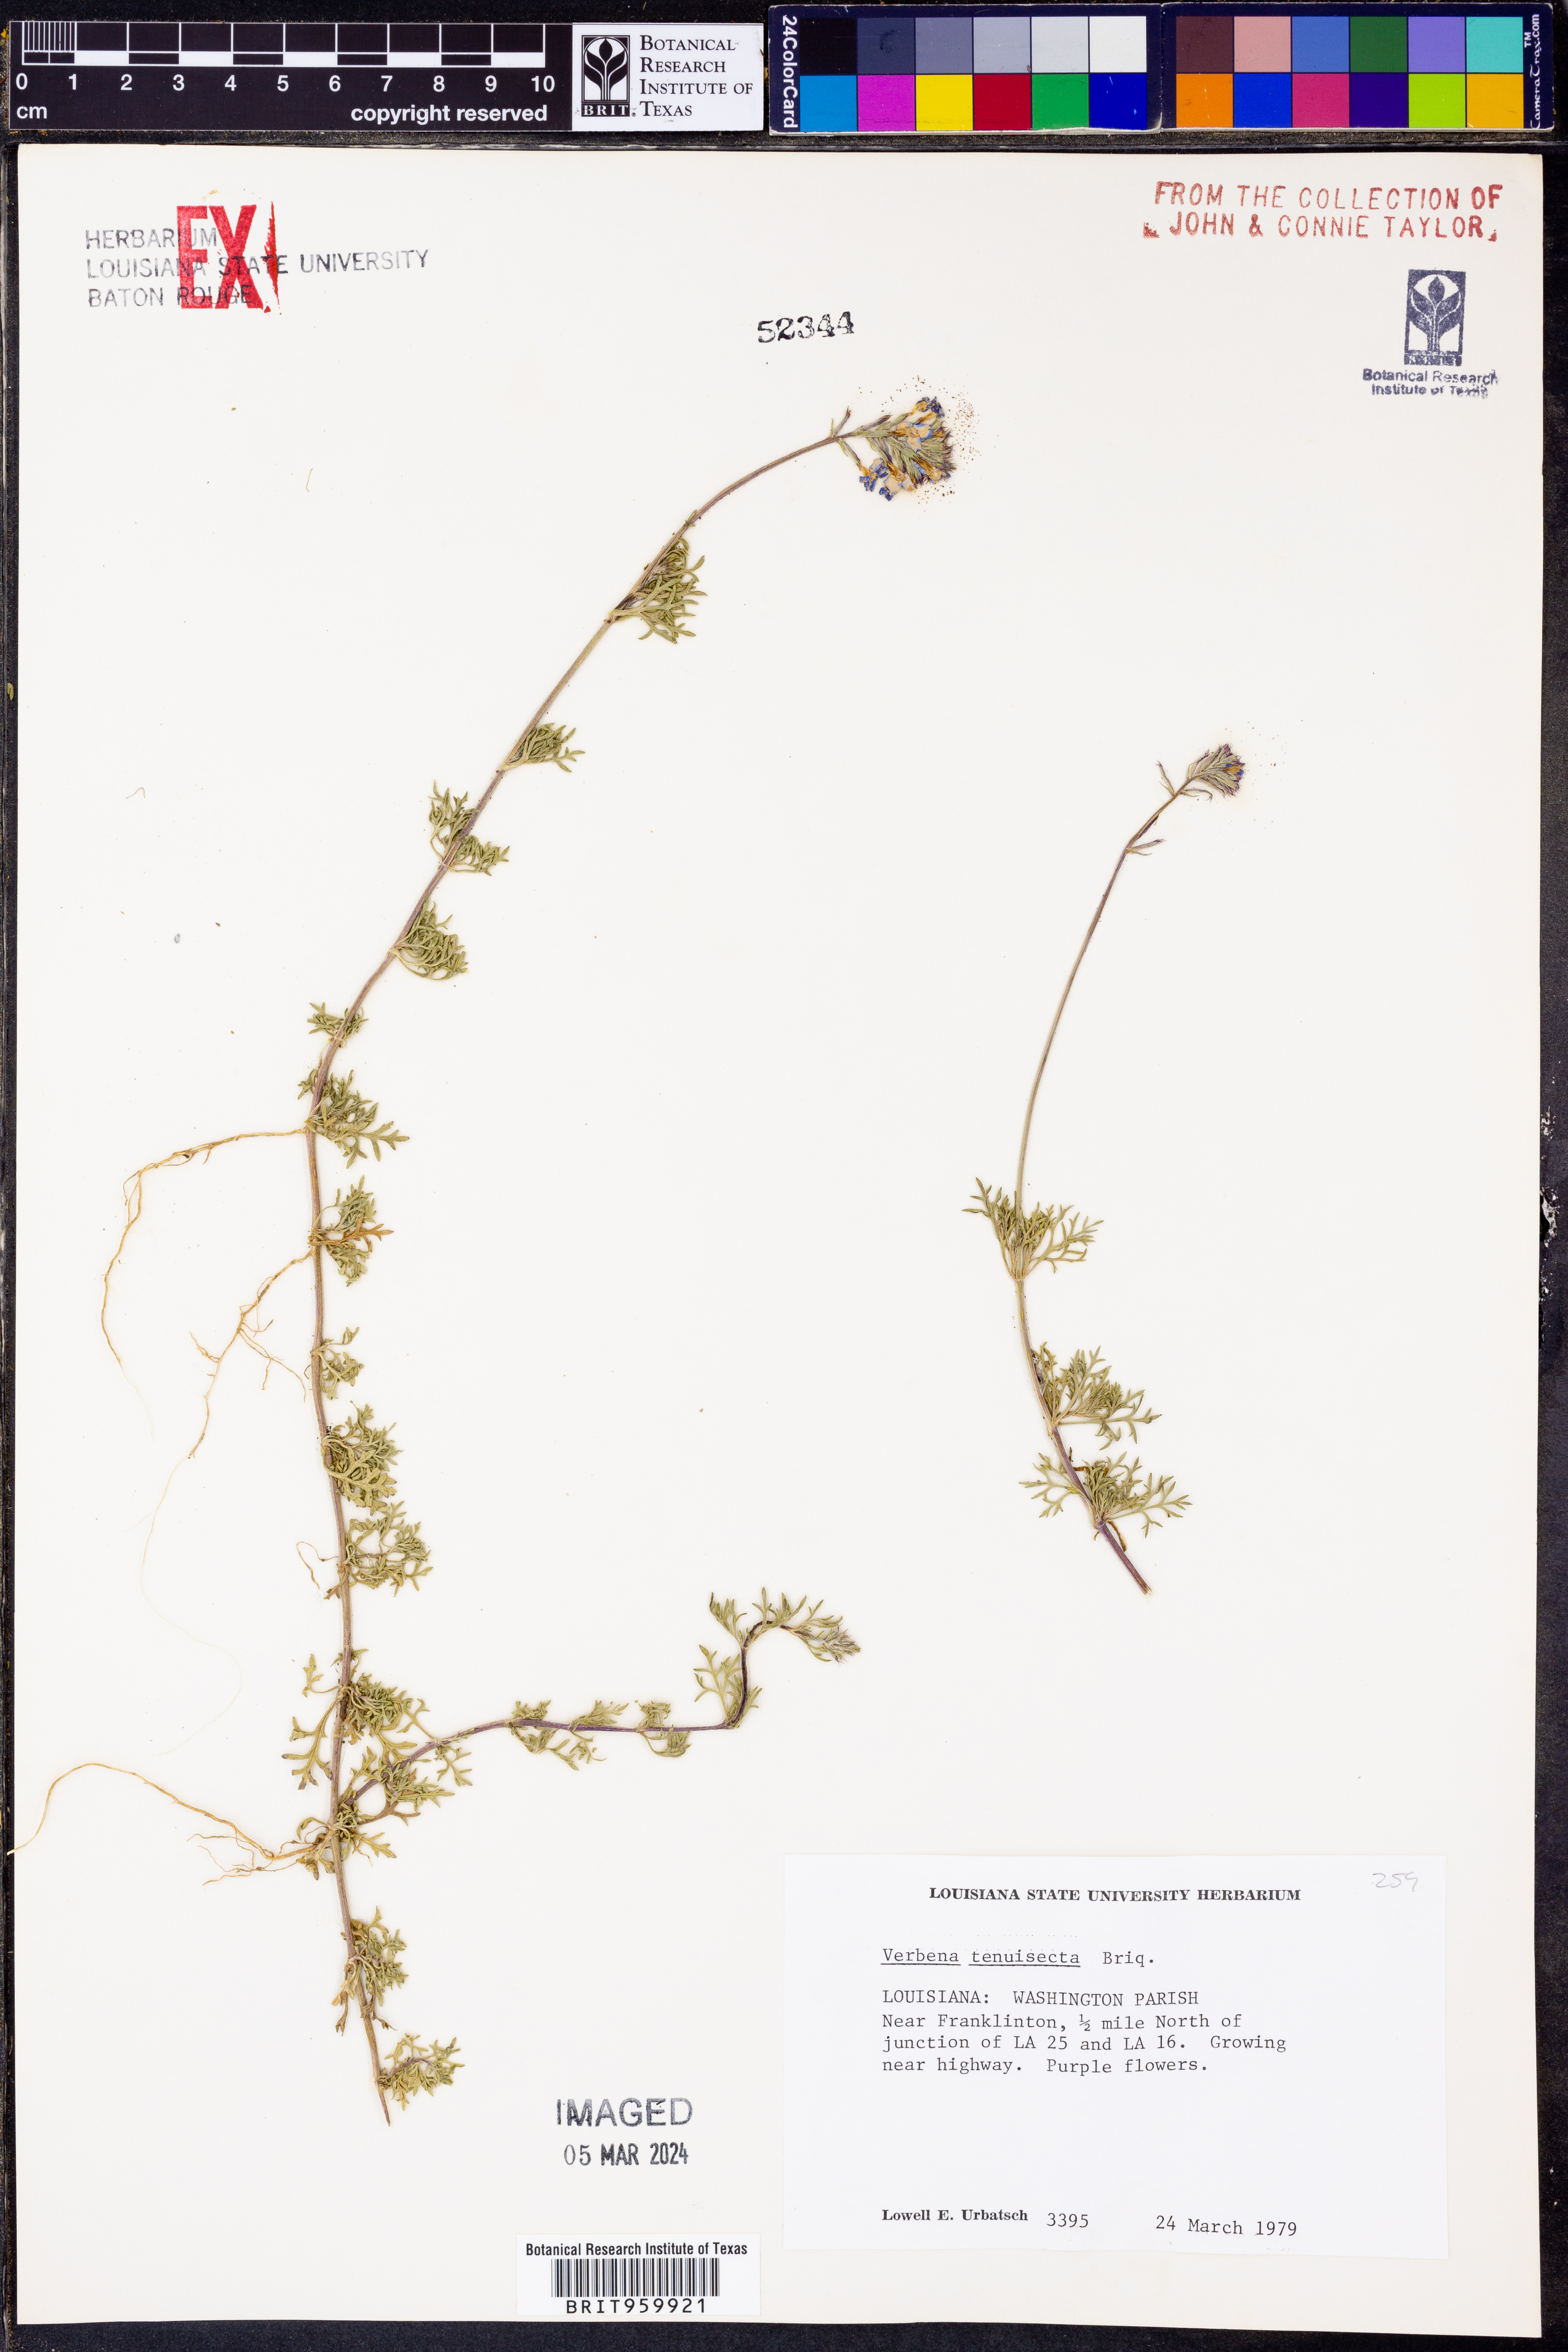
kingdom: Plantae
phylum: Tracheophyta
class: Magnoliopsida
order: Lamiales
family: Verbenaceae
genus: Verbena
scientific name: Verbena tenera
